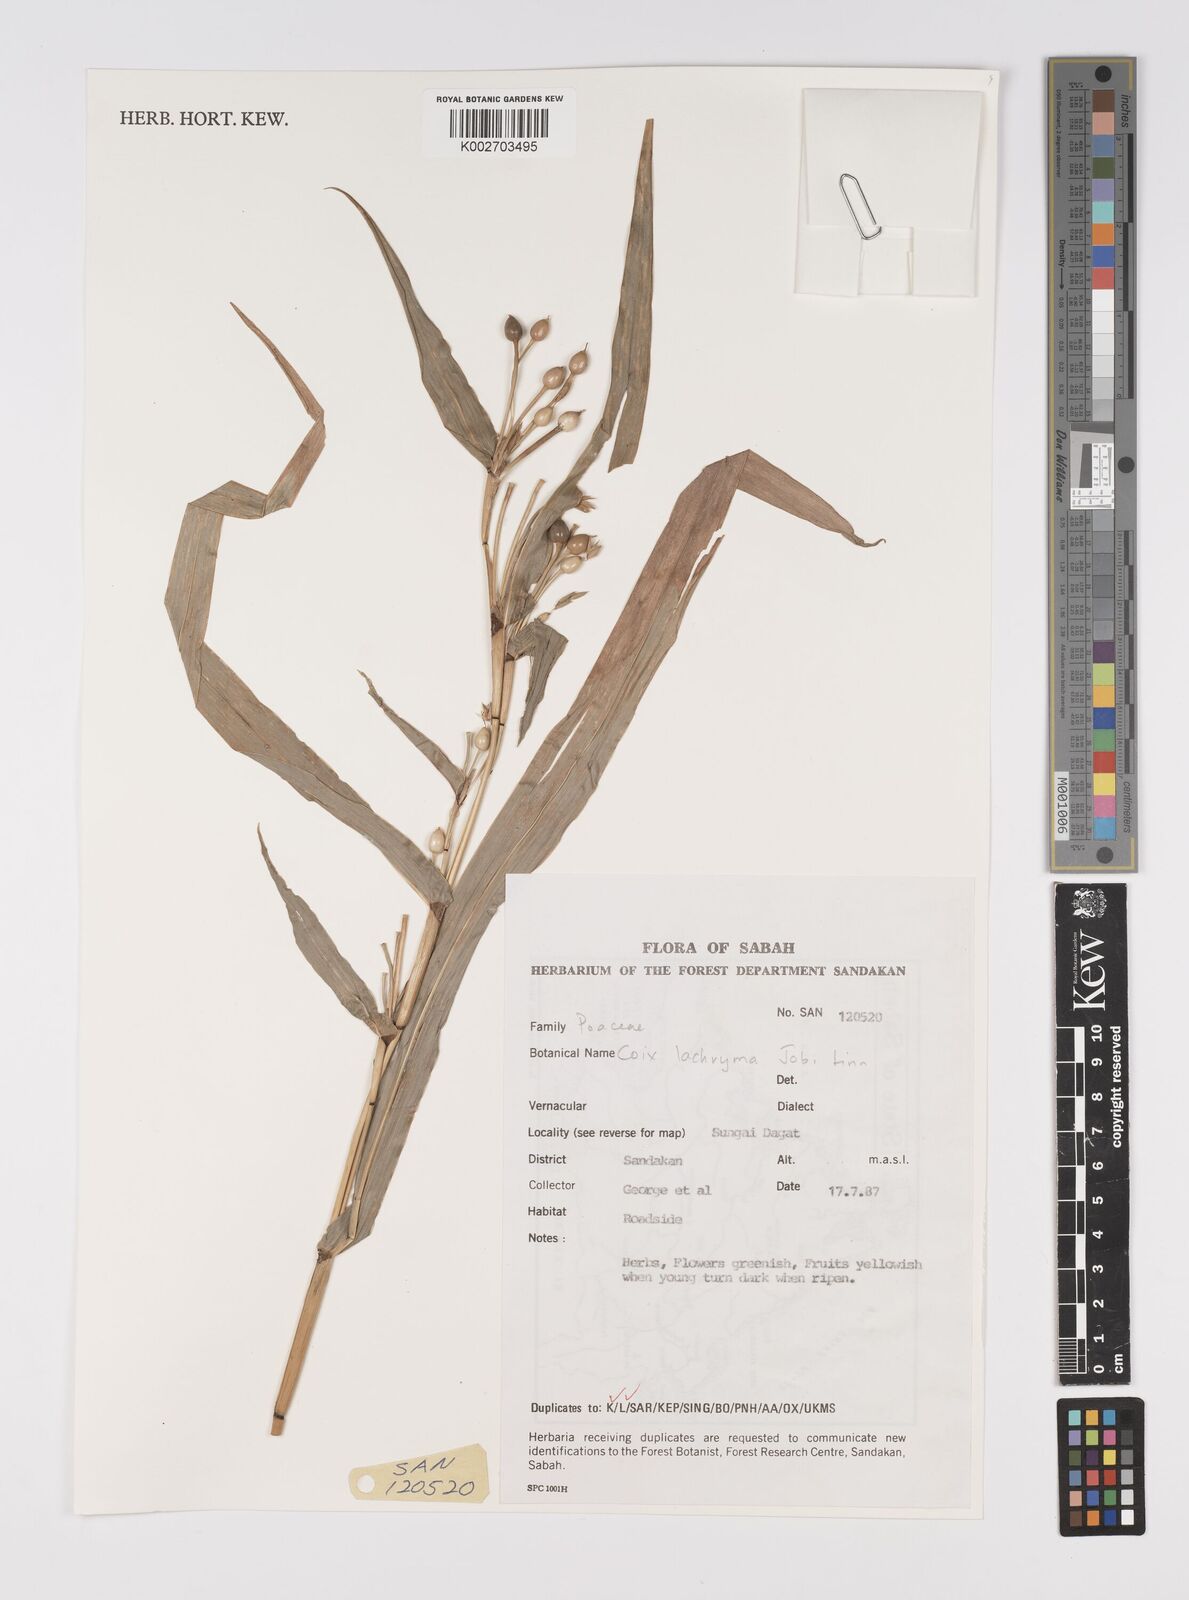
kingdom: Plantae
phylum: Tracheophyta
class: Liliopsida
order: Poales
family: Poaceae
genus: Coix
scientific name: Coix lacryma-jobi
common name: Job's tears
